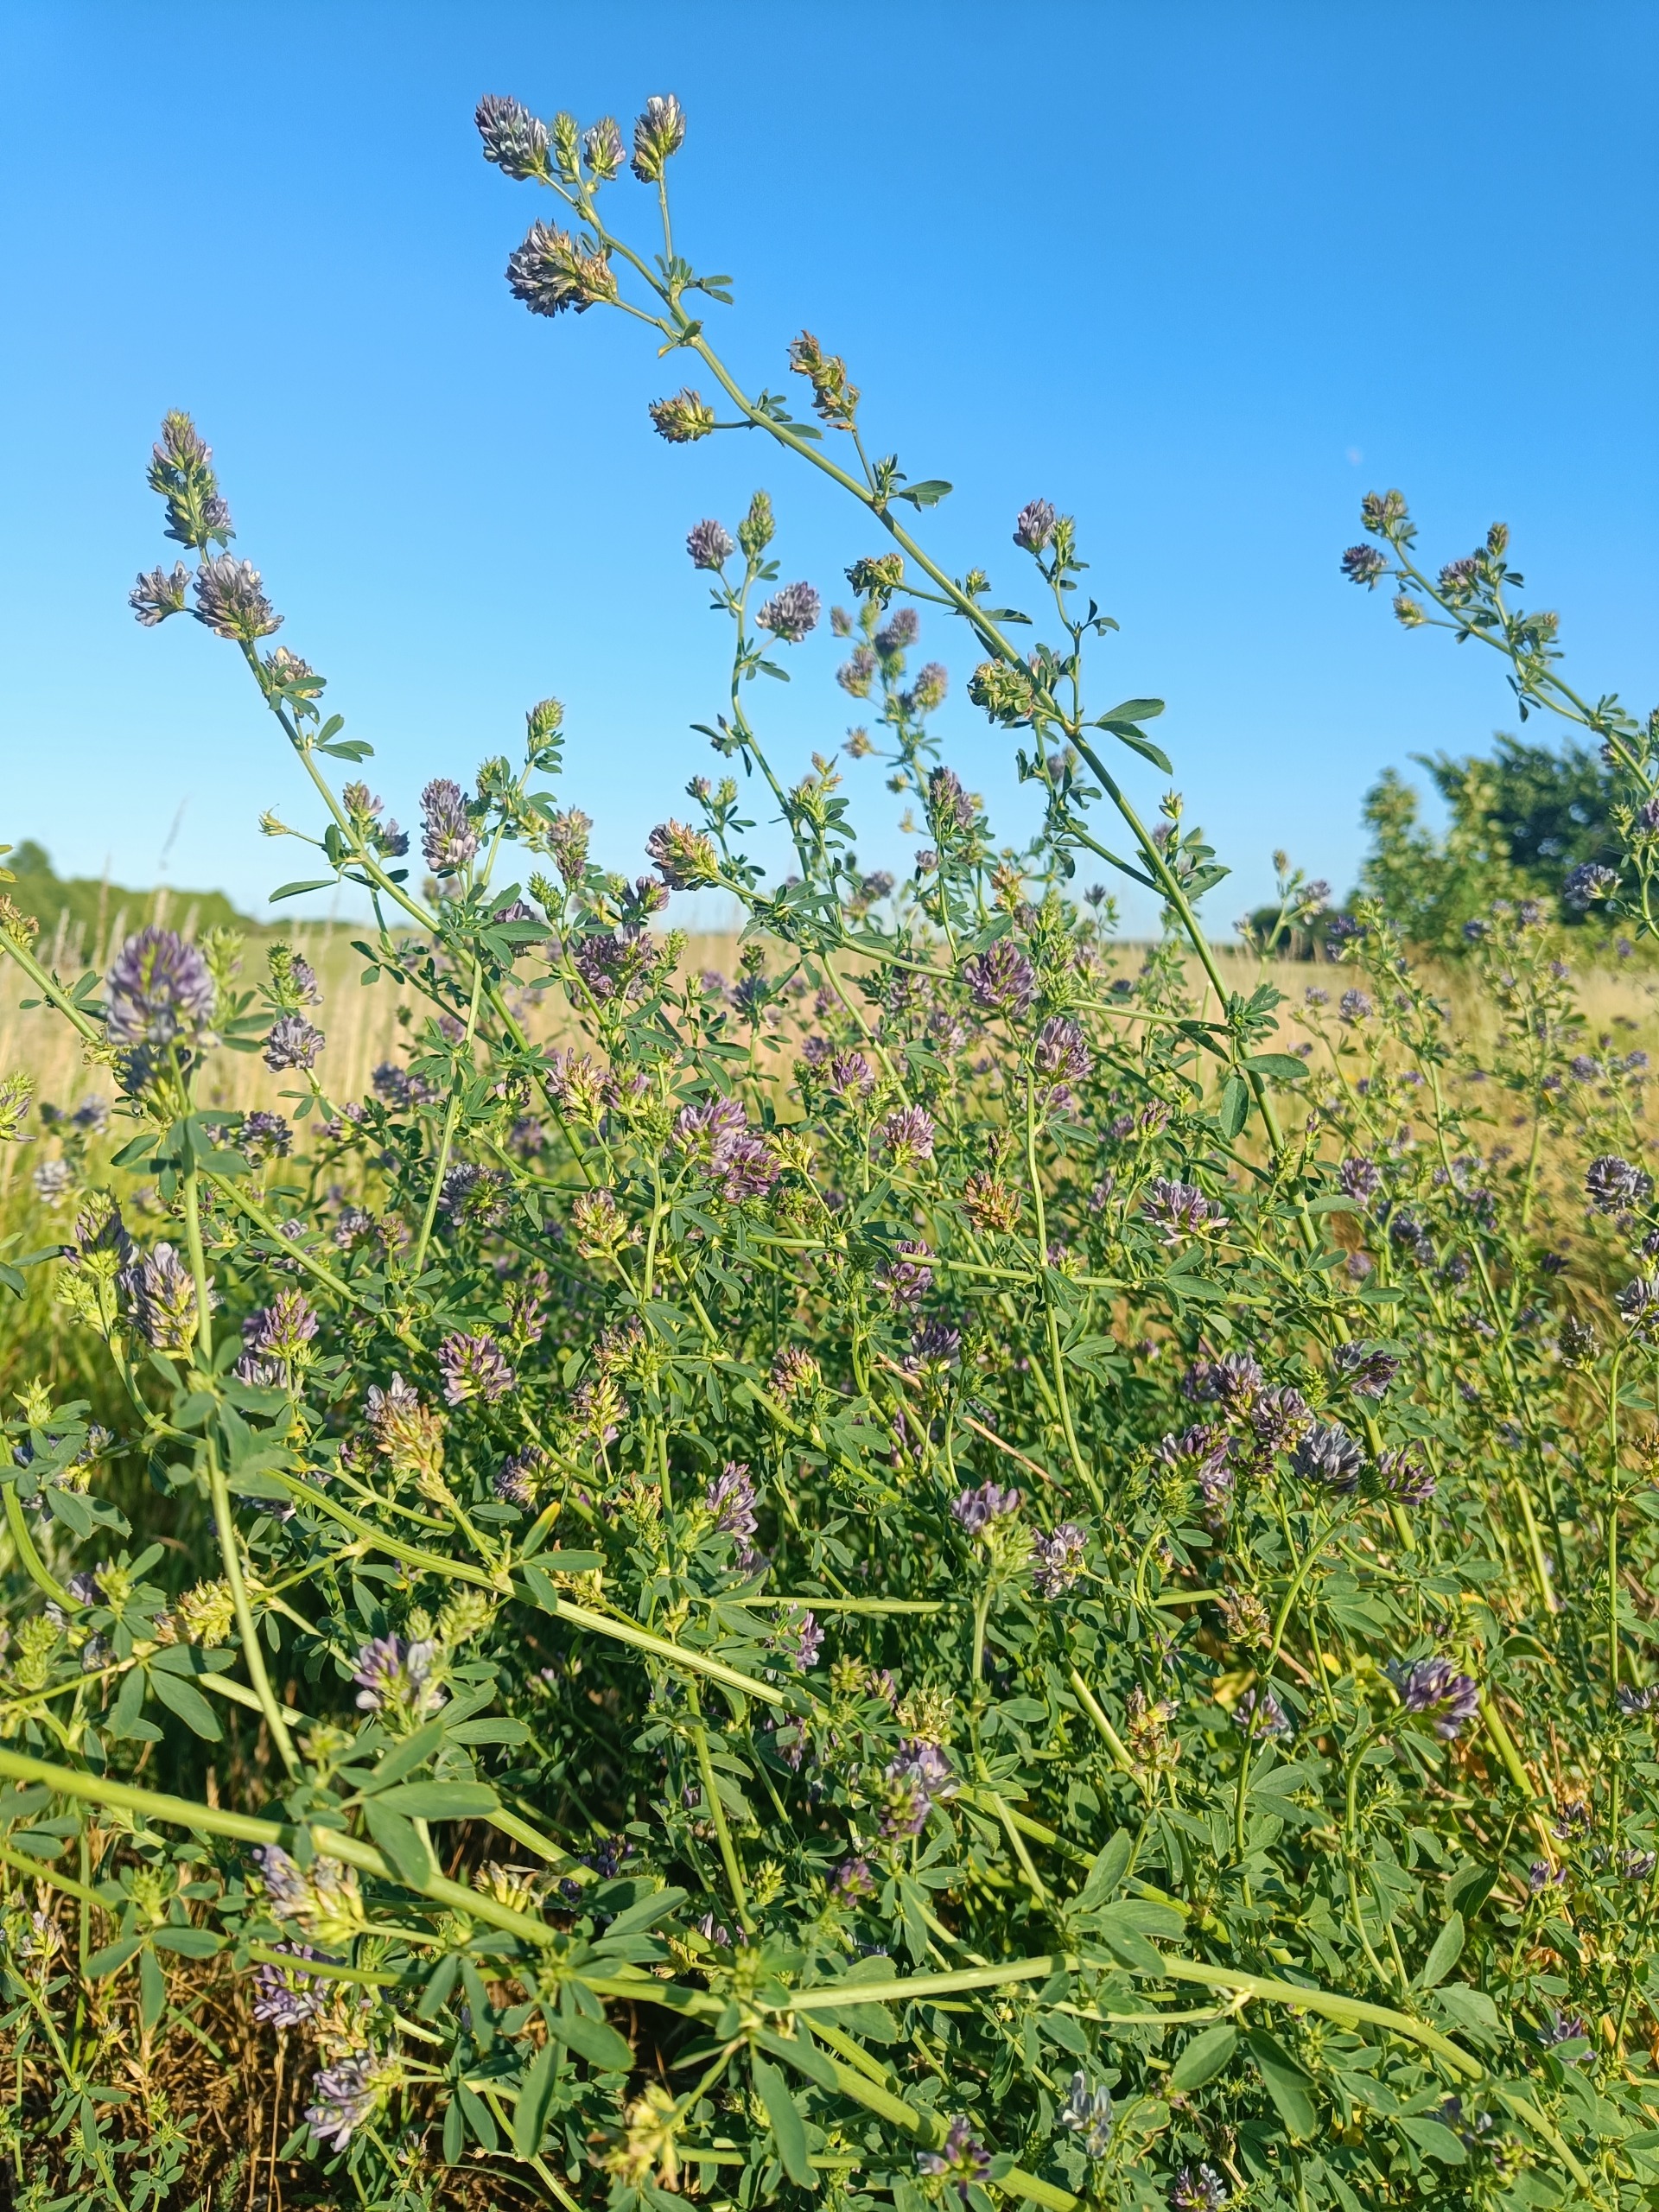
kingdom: Plantae
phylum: Tracheophyta
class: Magnoliopsida
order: Fabales
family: Fabaceae
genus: Medicago
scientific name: Medicago sativa
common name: Lucerne
